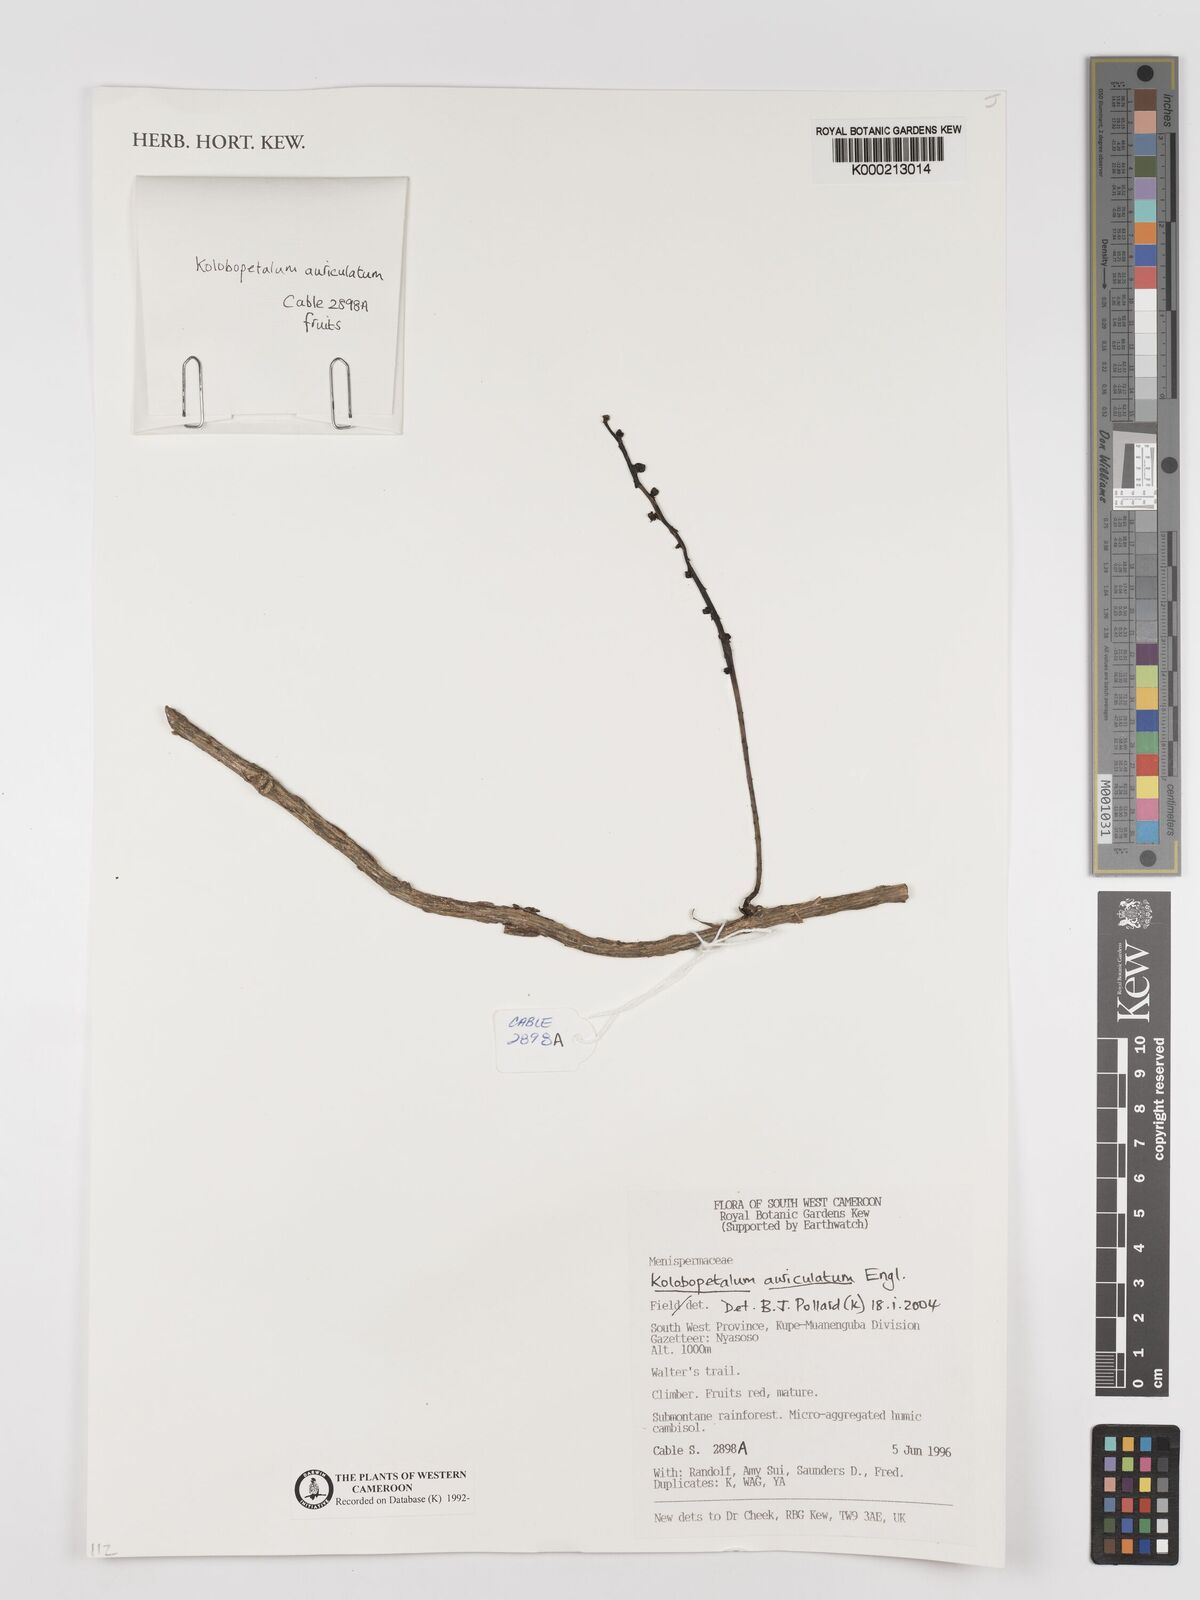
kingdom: Plantae
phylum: Tracheophyta
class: Magnoliopsida
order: Ranunculales
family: Menispermaceae
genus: Kolobopetalum
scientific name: Kolobopetalum auriculatum
